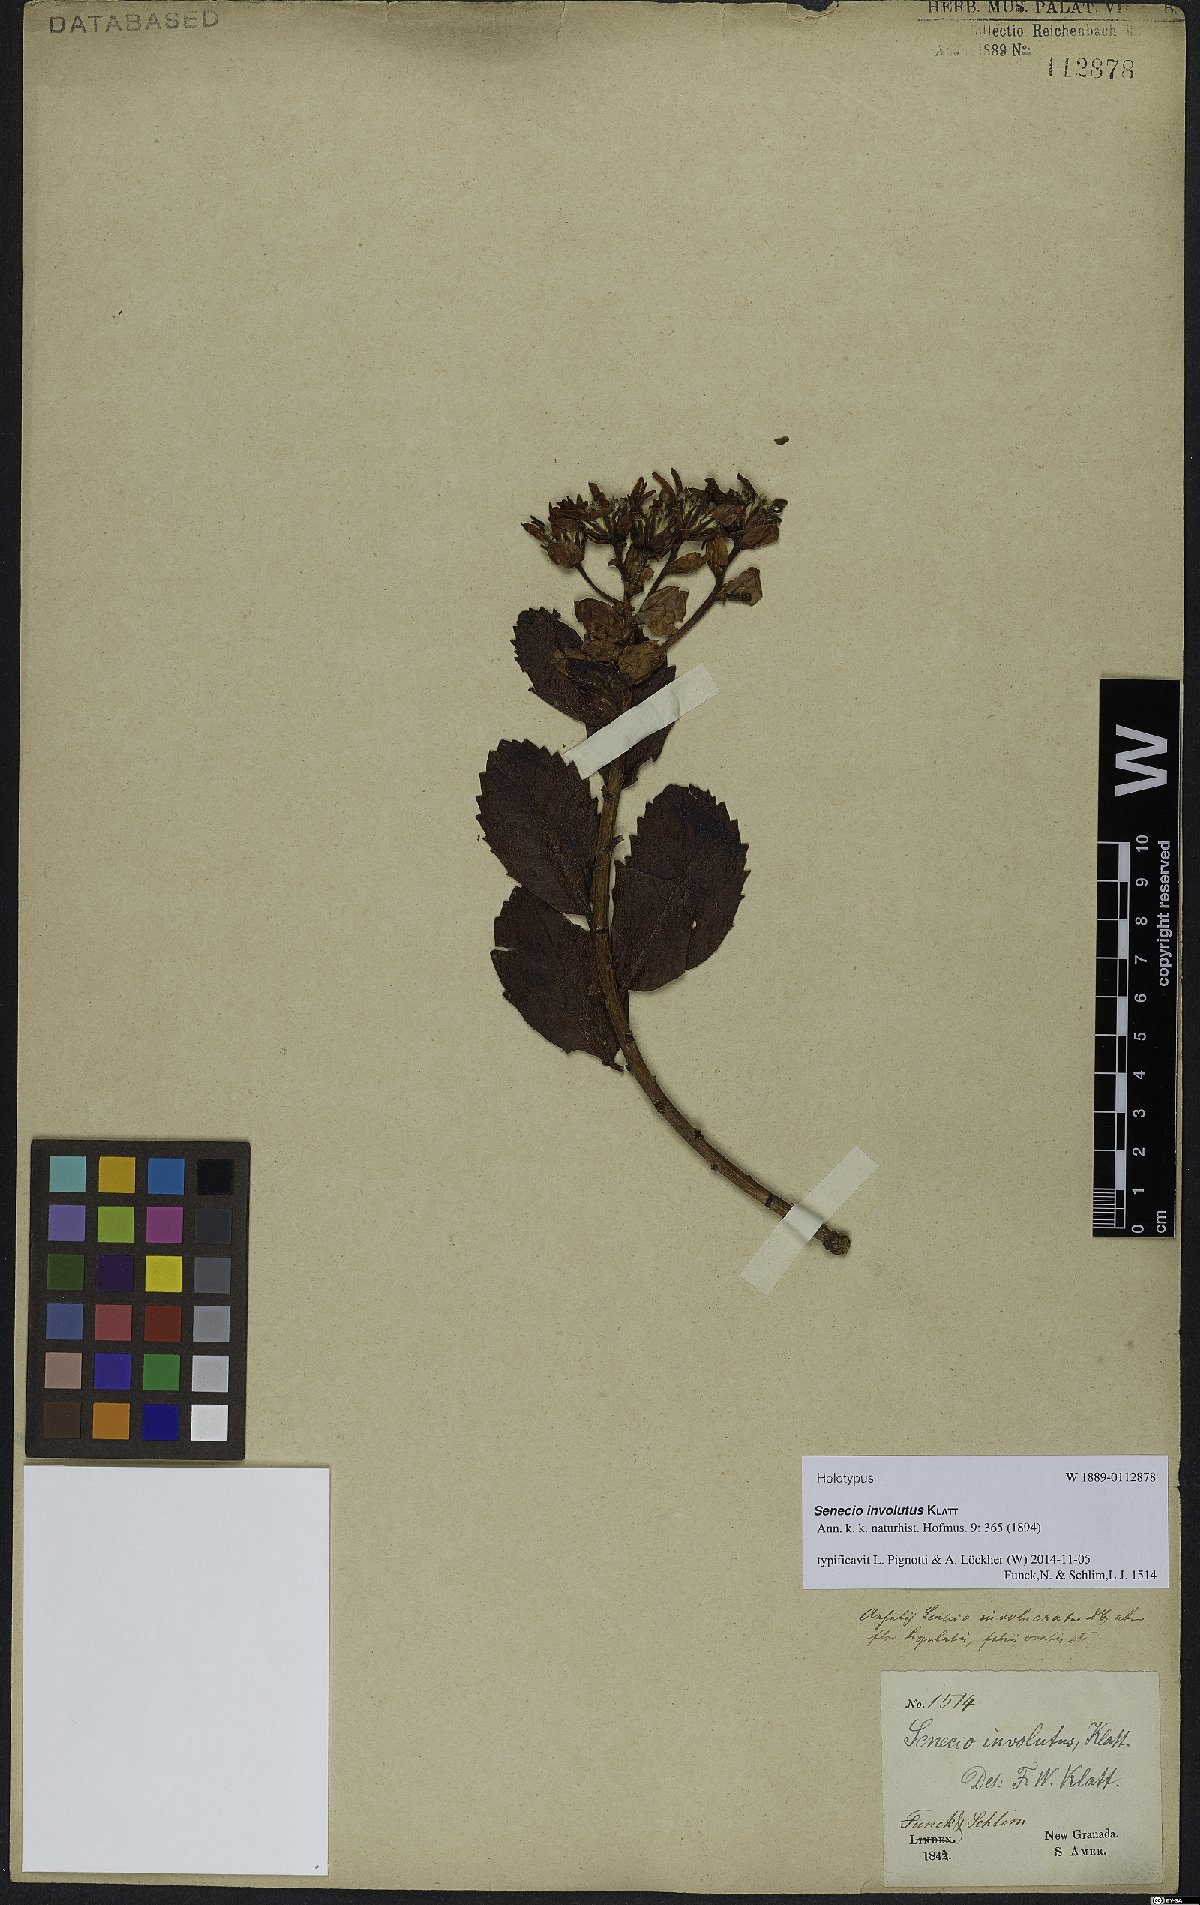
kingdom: Plantae
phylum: Tracheophyta
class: Magnoliopsida
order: Asterales
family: Asteraceae
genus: Pentacalia
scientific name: Pentacalia involuta
